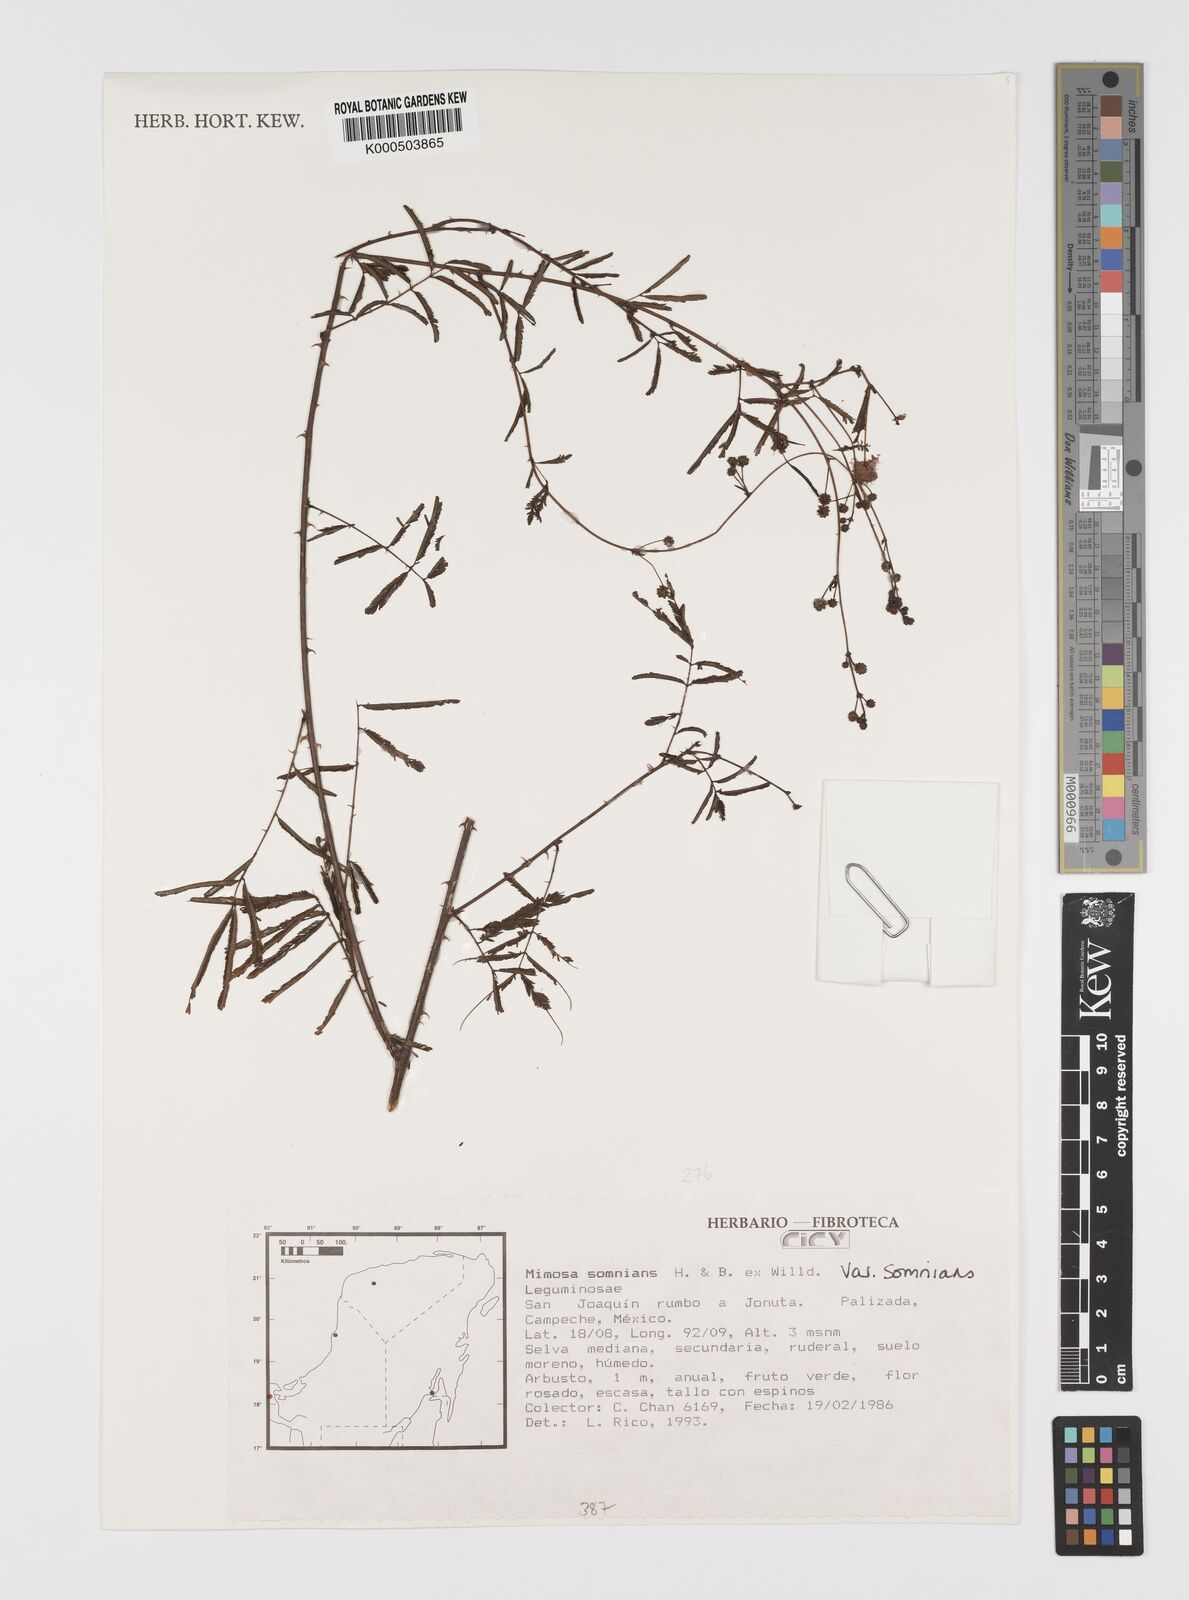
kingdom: Plantae
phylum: Tracheophyta
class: Magnoliopsida
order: Fabales
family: Fabaceae
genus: Mimosa
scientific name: Mimosa somnians
